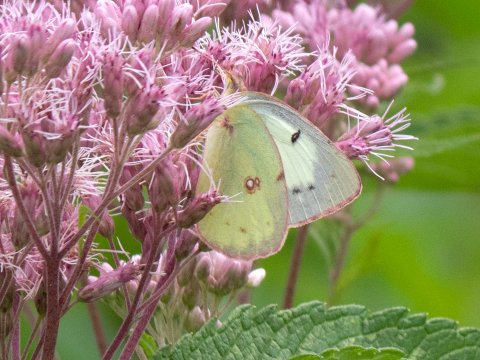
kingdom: Animalia
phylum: Arthropoda
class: Insecta
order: Lepidoptera
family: Pieridae
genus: Colias
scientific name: Colias philodice
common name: Clouded Sulphur
